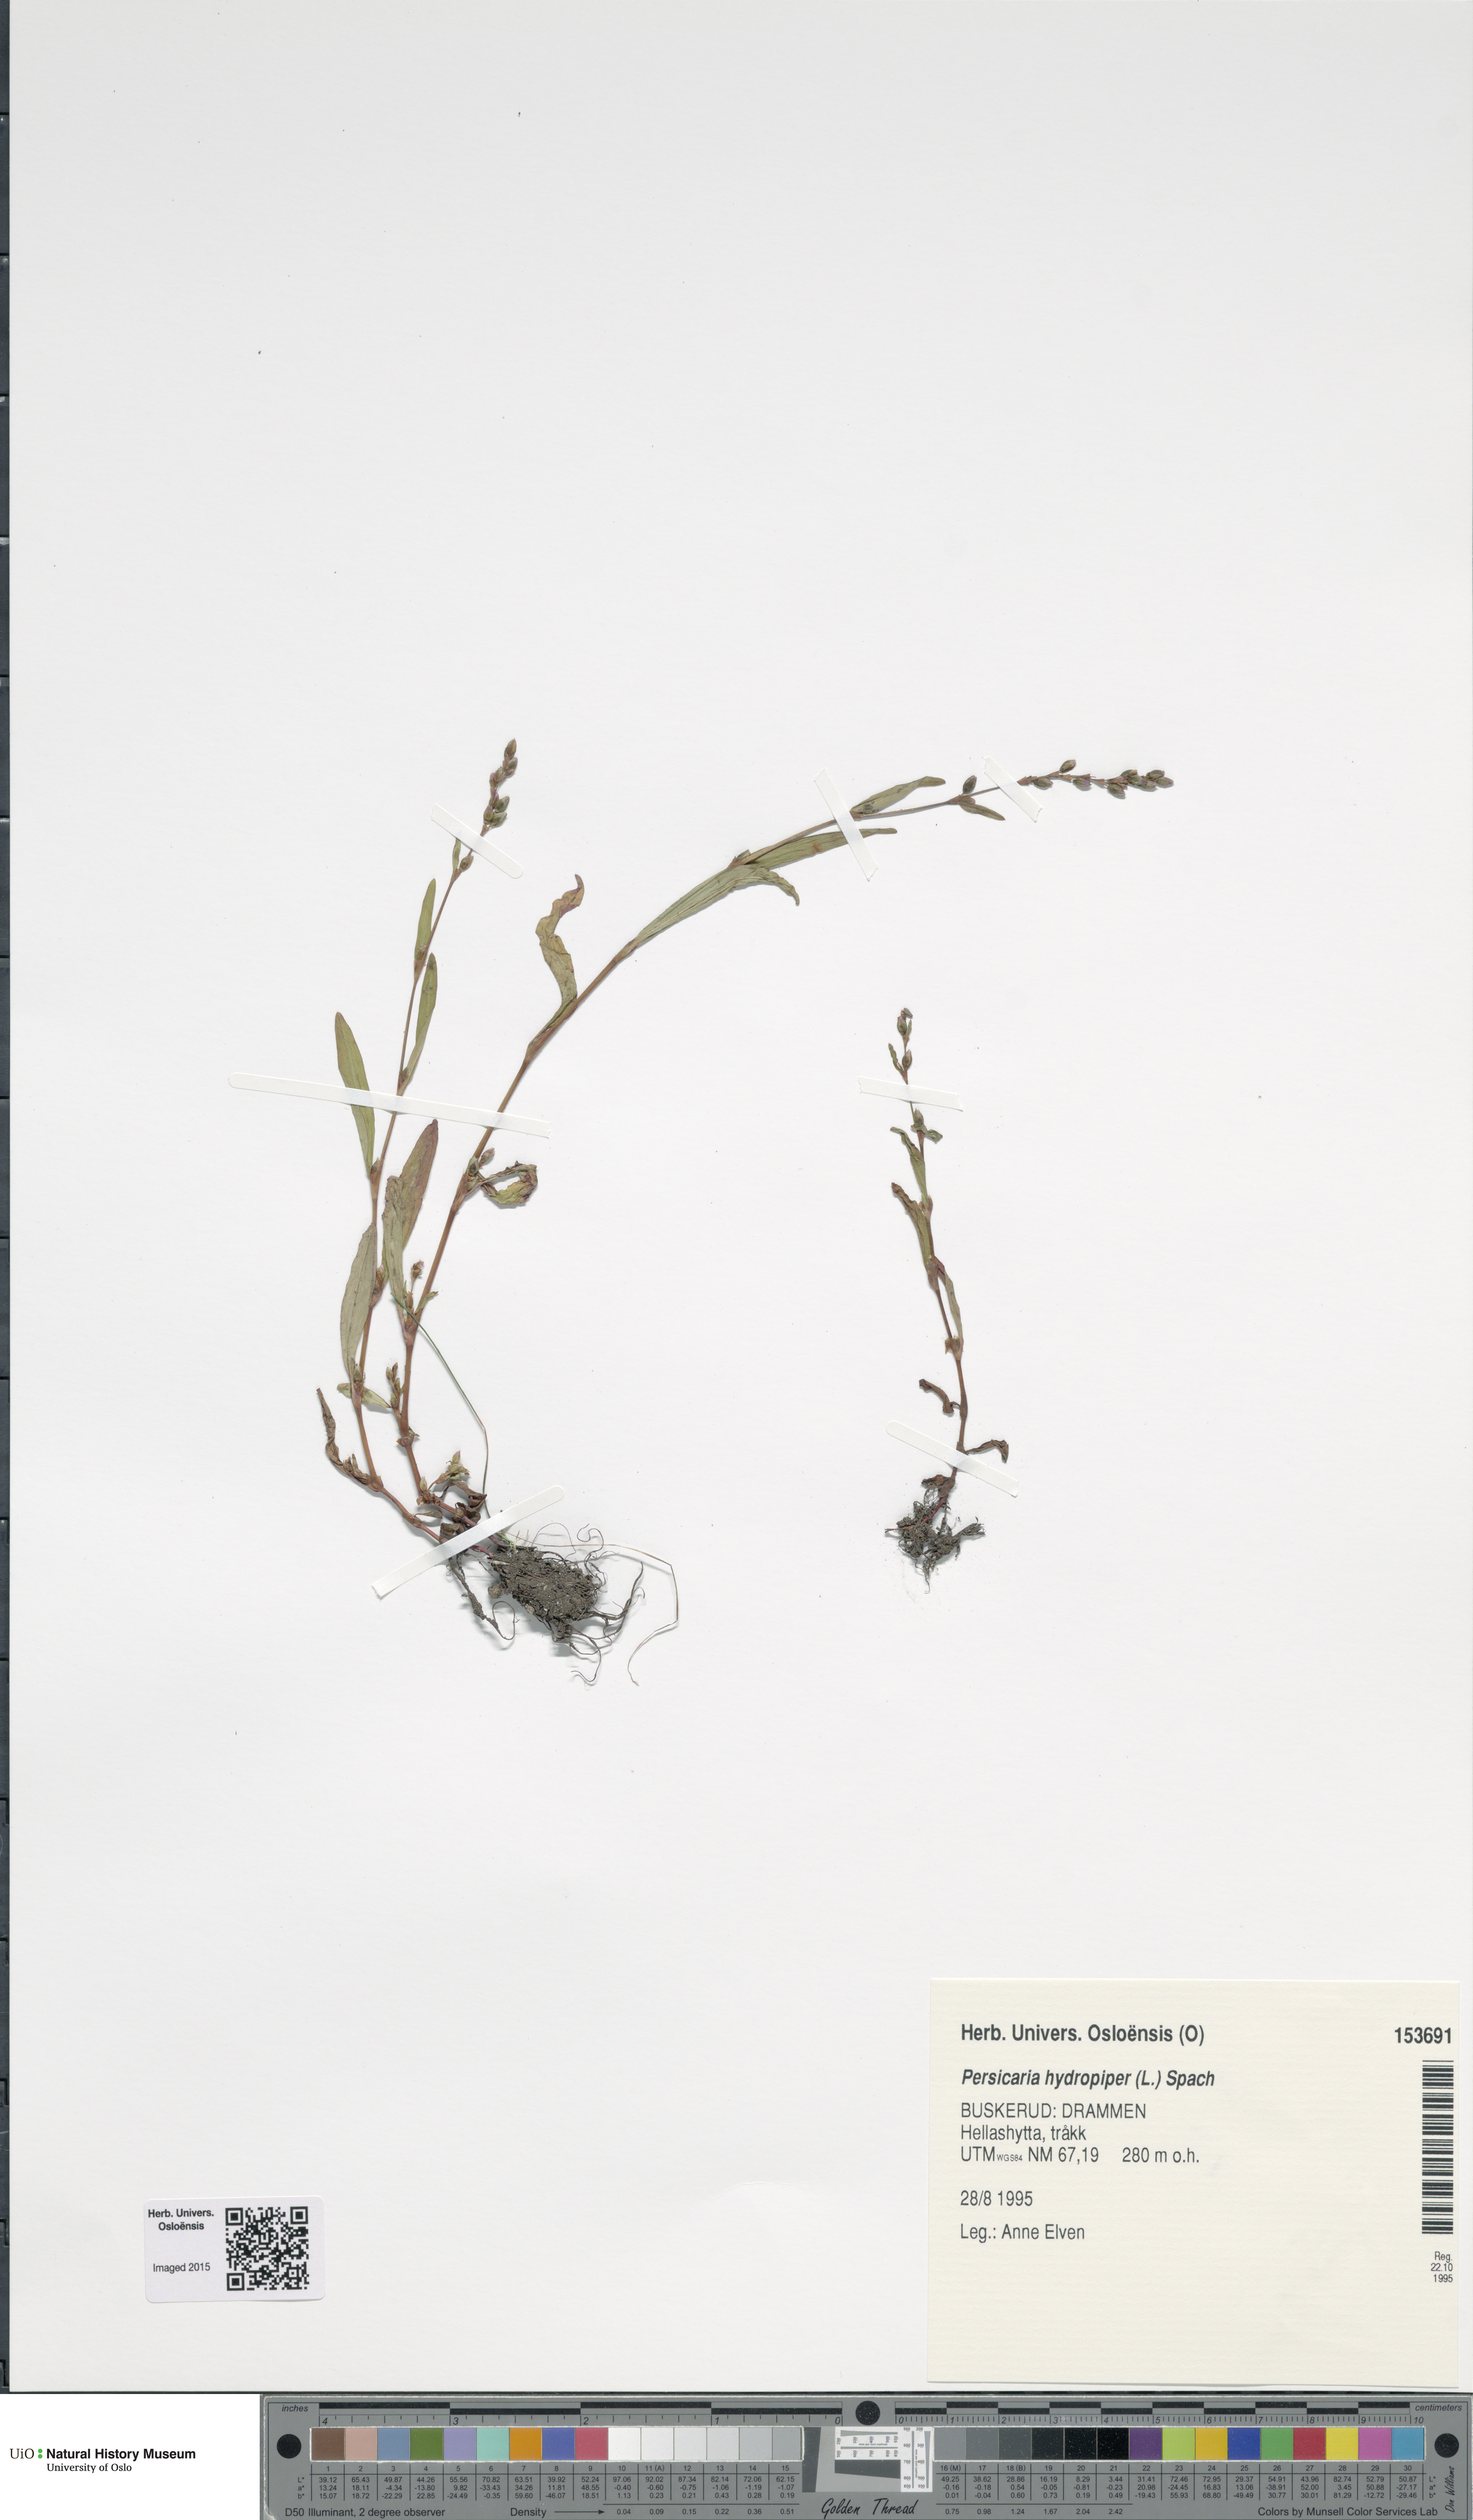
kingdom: Plantae
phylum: Tracheophyta
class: Magnoliopsida
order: Caryophyllales
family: Polygonaceae
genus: Persicaria
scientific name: Persicaria hydropiper
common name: Water-pepper
